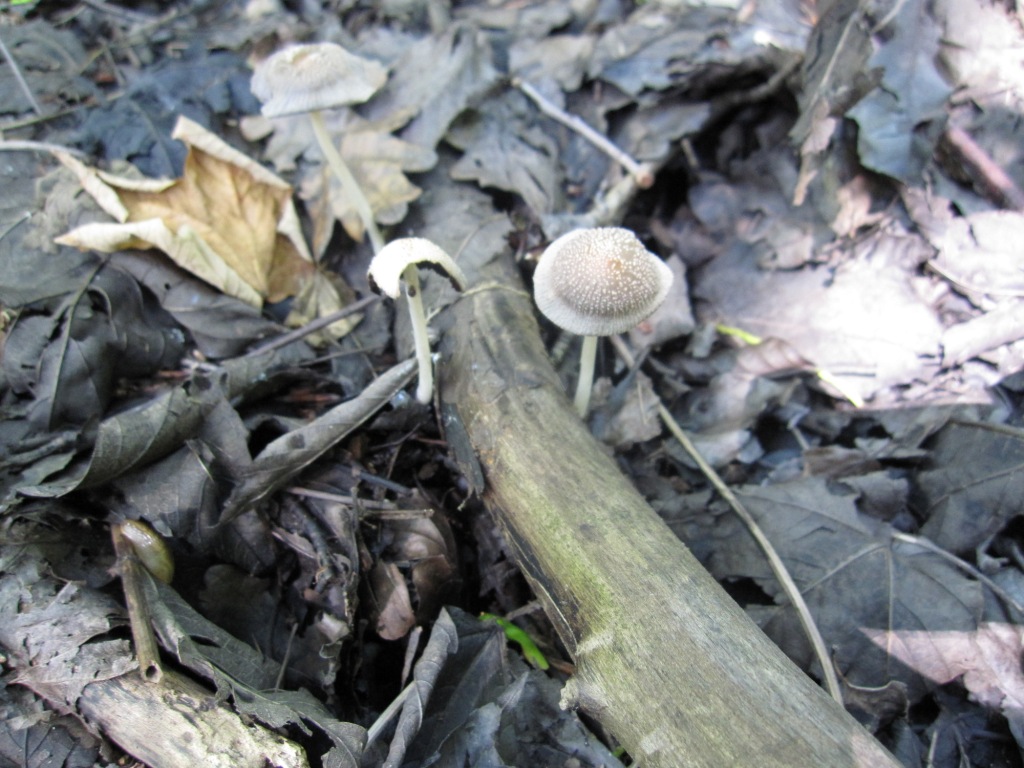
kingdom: Fungi
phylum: Basidiomycota
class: Agaricomycetes
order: Agaricales
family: Psathyrellaceae
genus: Coprinellus
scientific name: Coprinellus radians
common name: grynet blækhat
